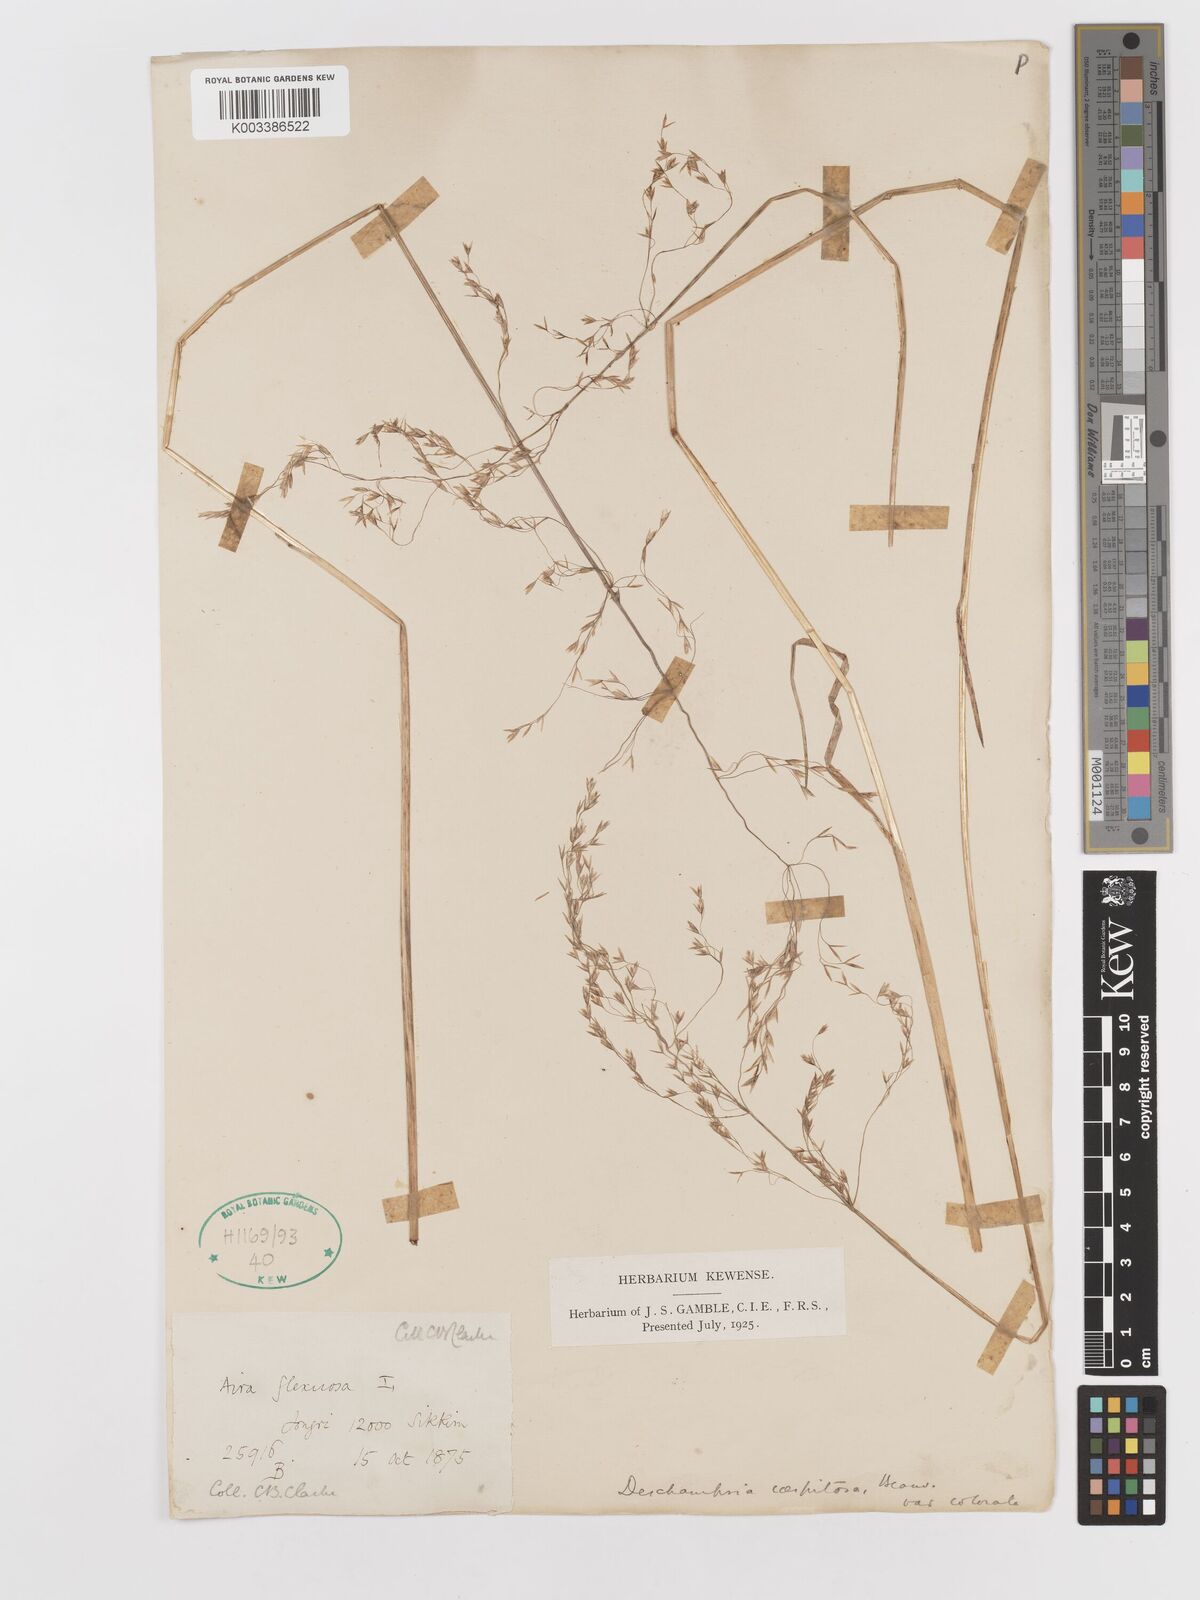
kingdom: Plantae
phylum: Tracheophyta
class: Liliopsida
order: Poales
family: Poaceae
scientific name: Poaceae
